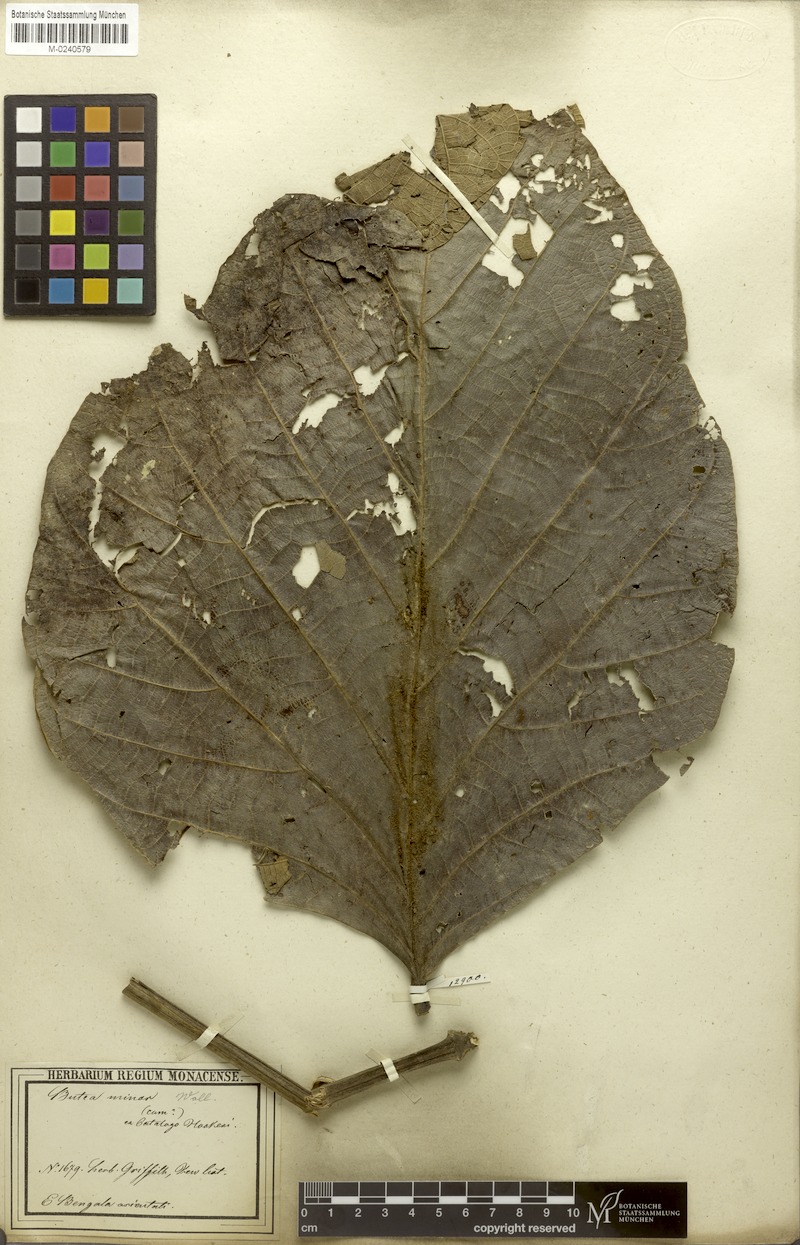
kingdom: Plantae
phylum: Tracheophyta
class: Magnoliopsida
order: Fabales
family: Fabaceae
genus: Butea
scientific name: Butea buteiformis
